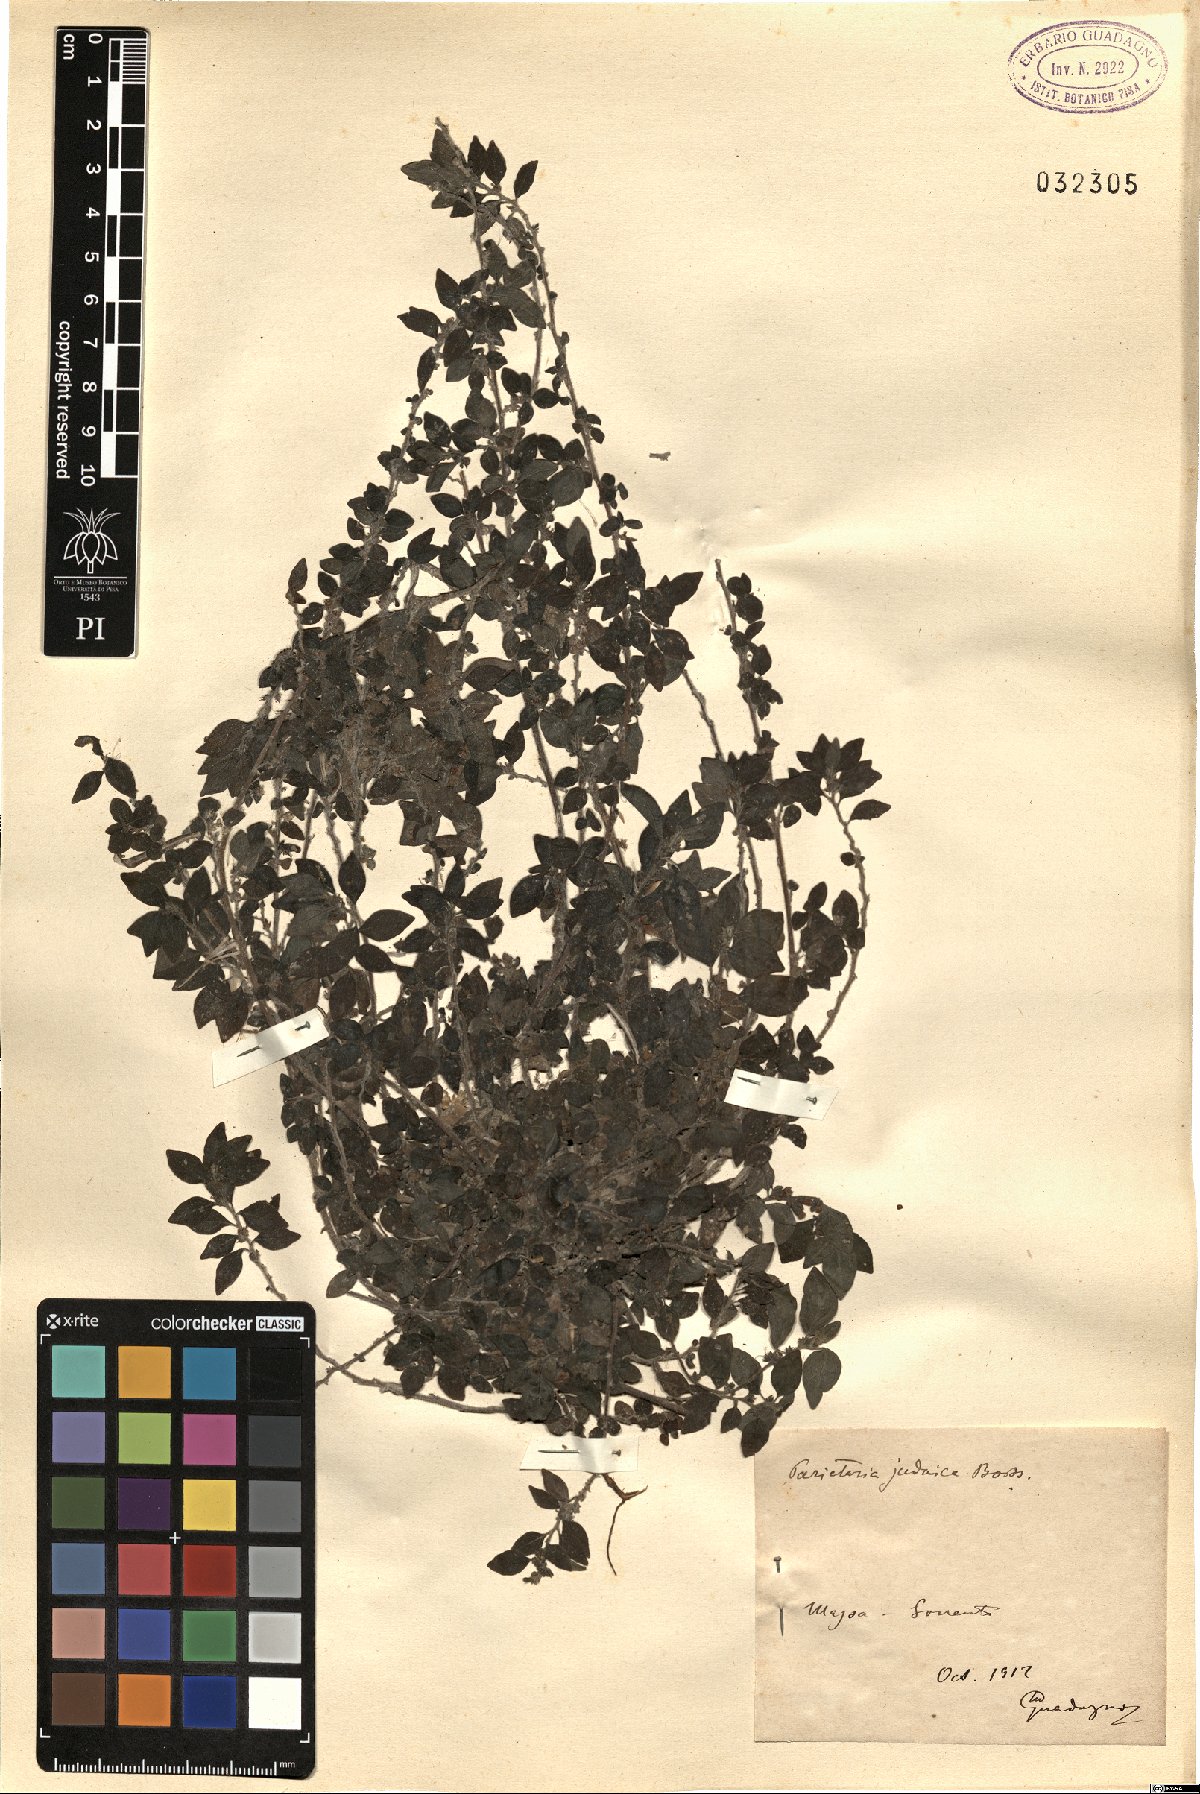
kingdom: Plantae
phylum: Tracheophyta
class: Magnoliopsida
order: Rosales
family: Urticaceae
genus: Parietaria
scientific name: Parietaria judaica
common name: Pellitory-of-the-wall
